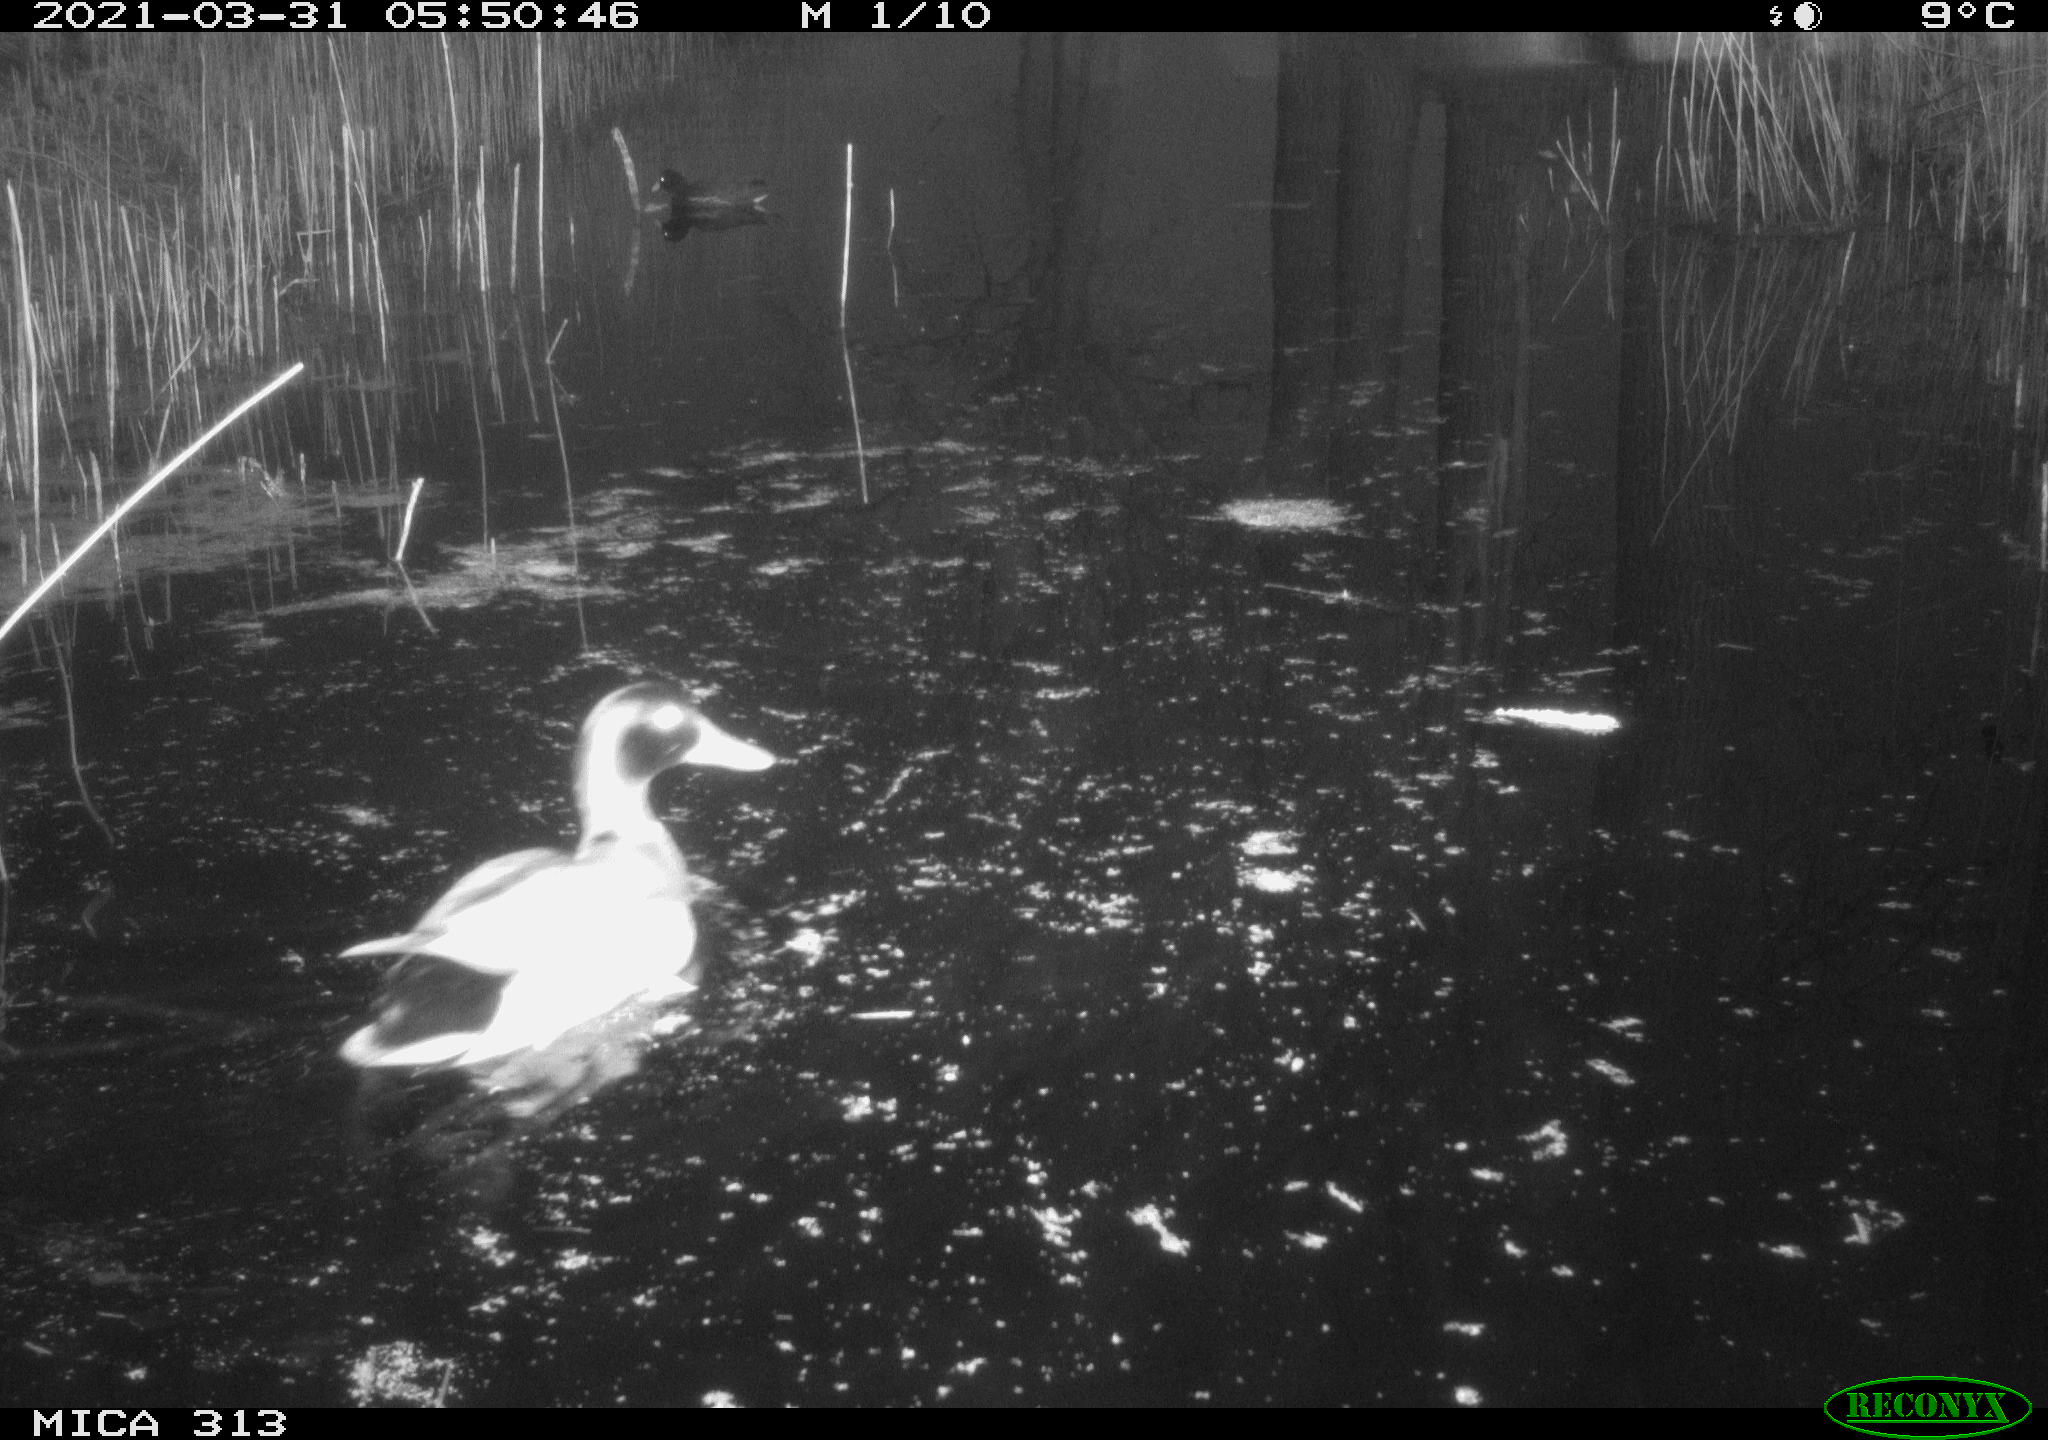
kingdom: Animalia
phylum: Chordata
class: Aves
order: Gruiformes
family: Rallidae
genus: Gallinula
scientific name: Gallinula chloropus
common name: Common moorhen
